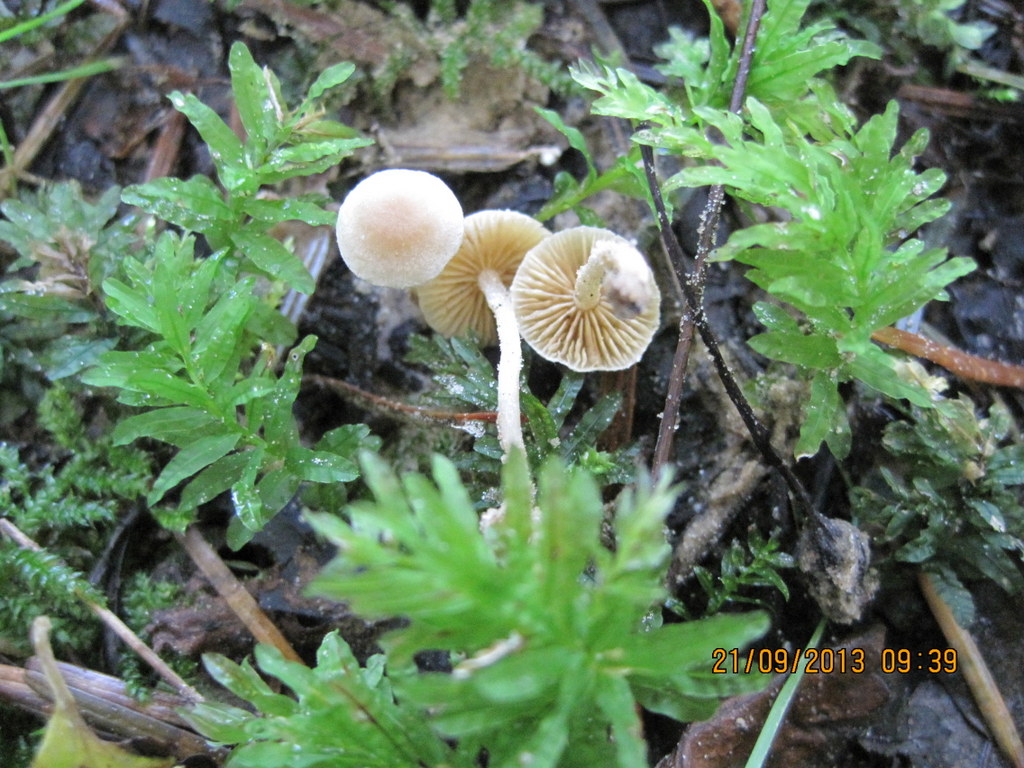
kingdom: Fungi
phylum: Basidiomycota
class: Agaricomycetes
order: Agaricales
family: Tubariaceae
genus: Tubaria
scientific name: Tubaria dispersa
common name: tjørne-fnughat
